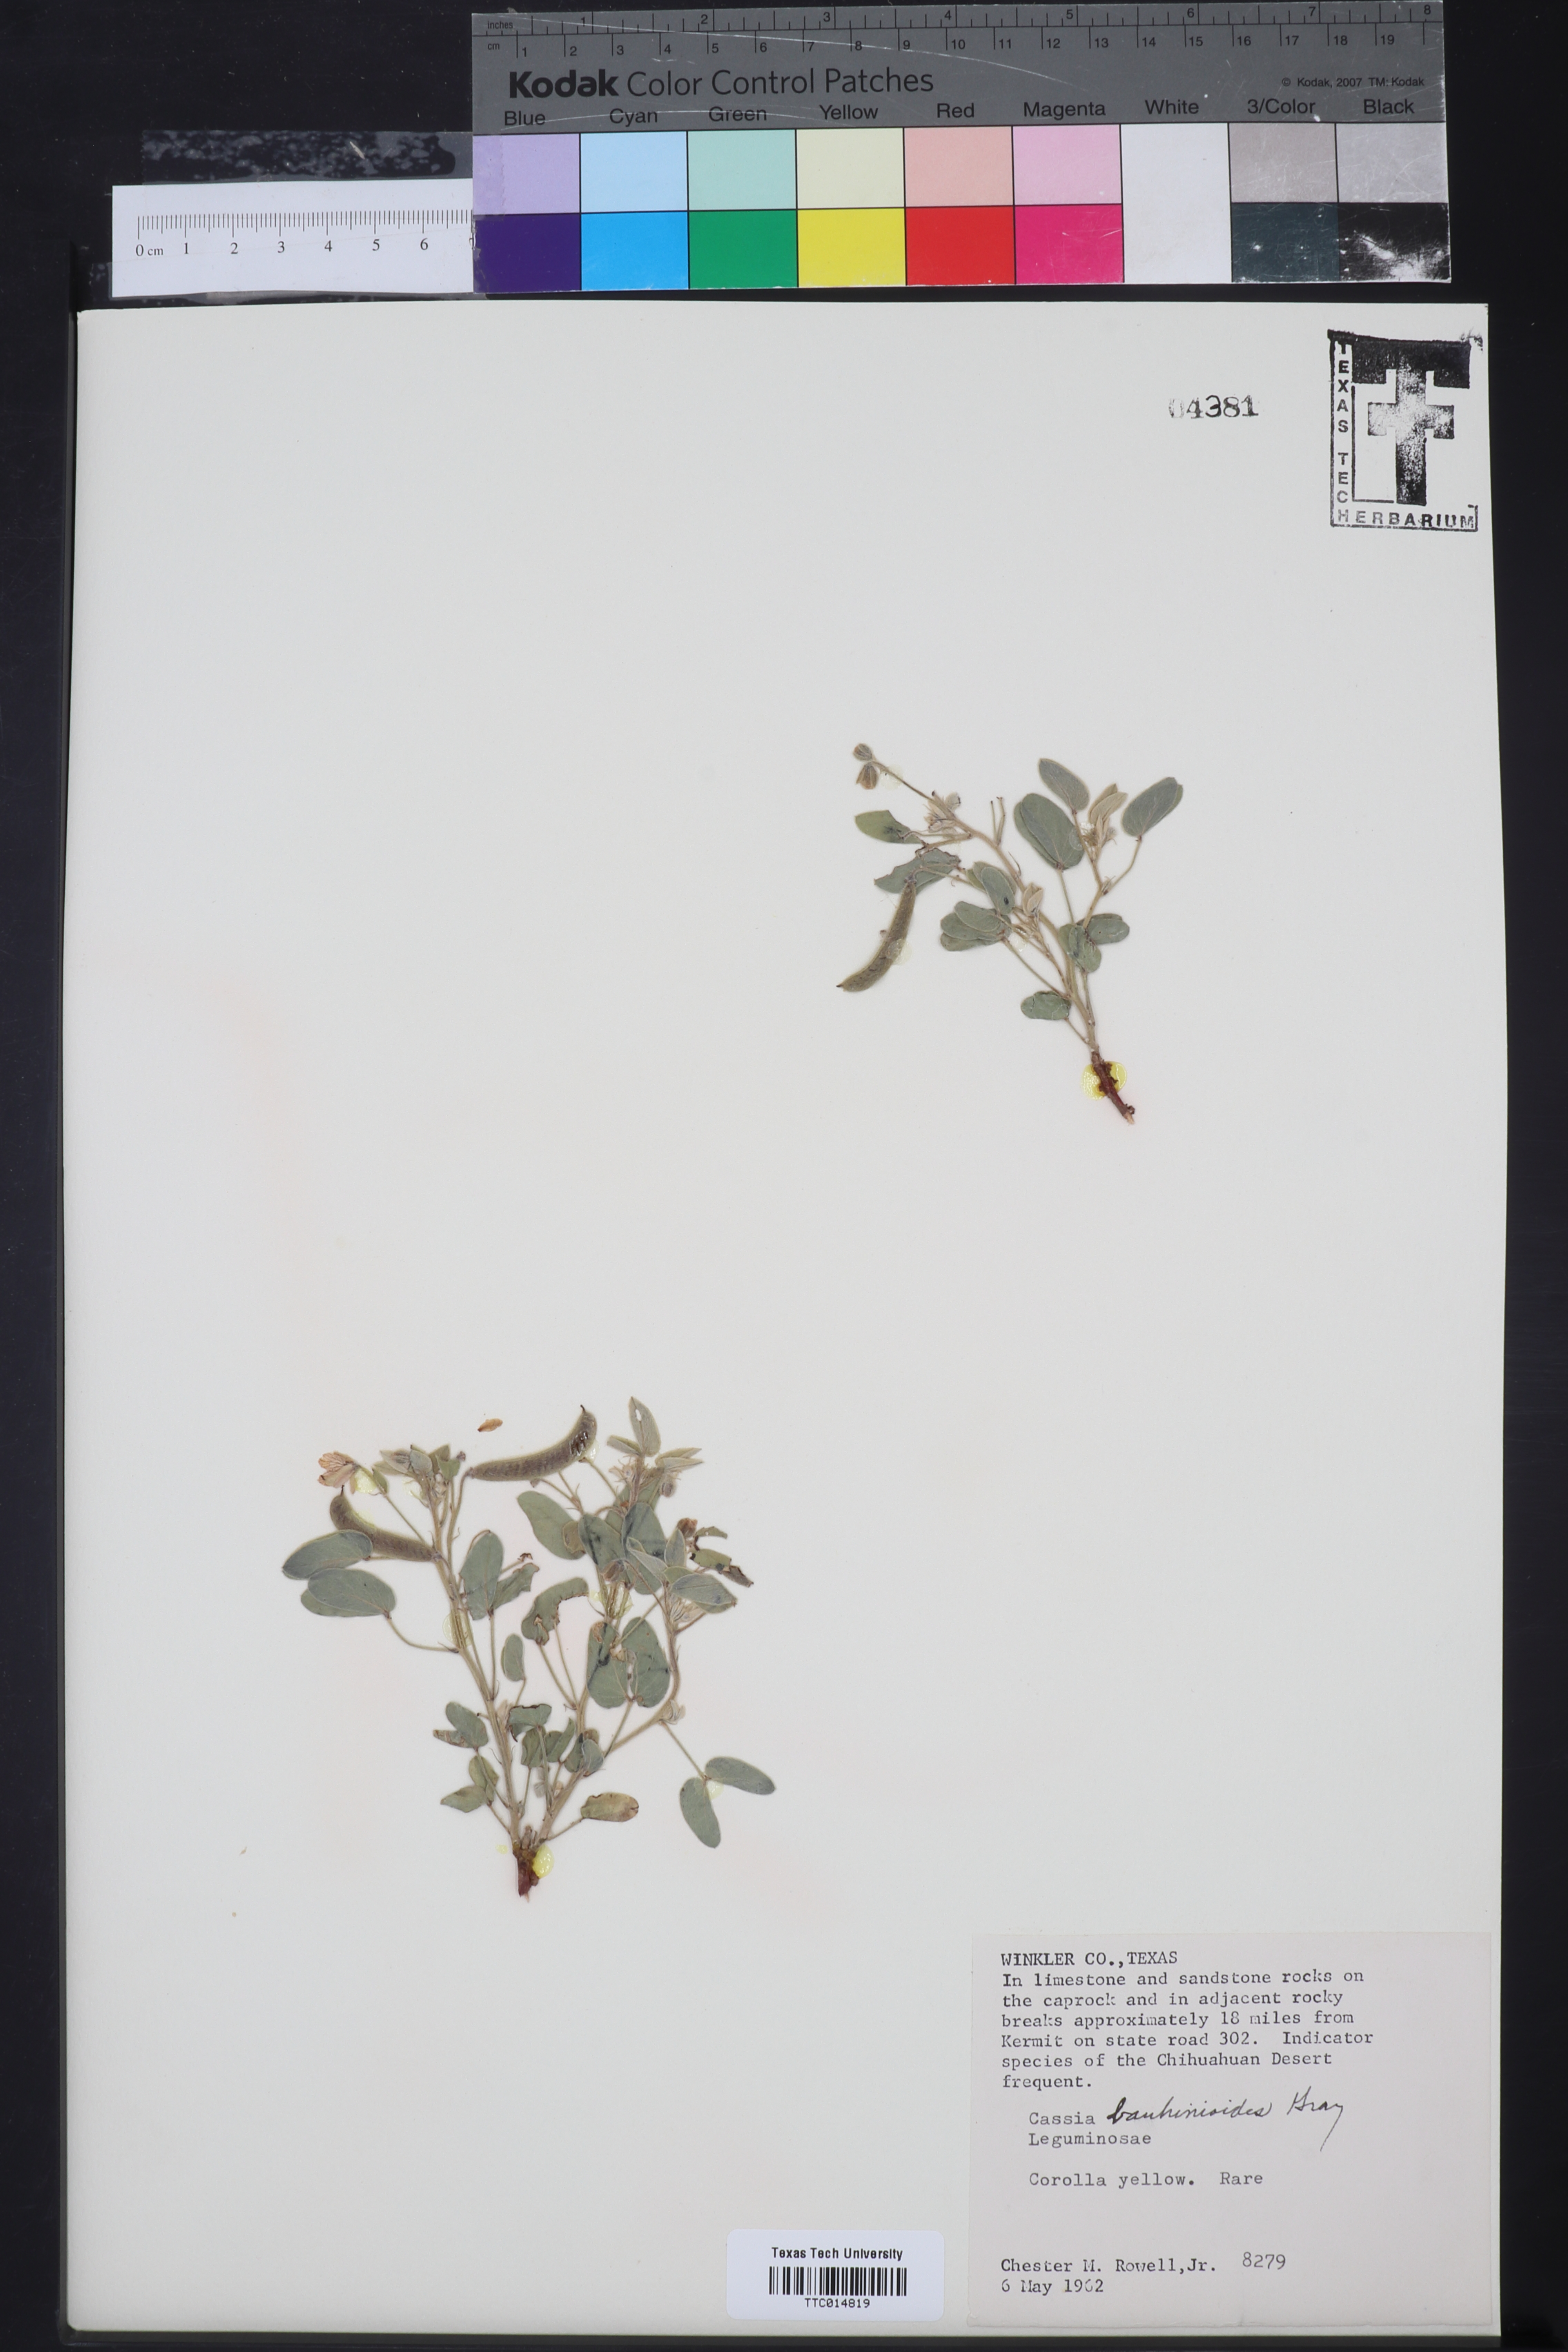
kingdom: Plantae
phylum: Tracheophyta
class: Magnoliopsida
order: Fabales
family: Fabaceae
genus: Senna
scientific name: Senna bauhinioides
